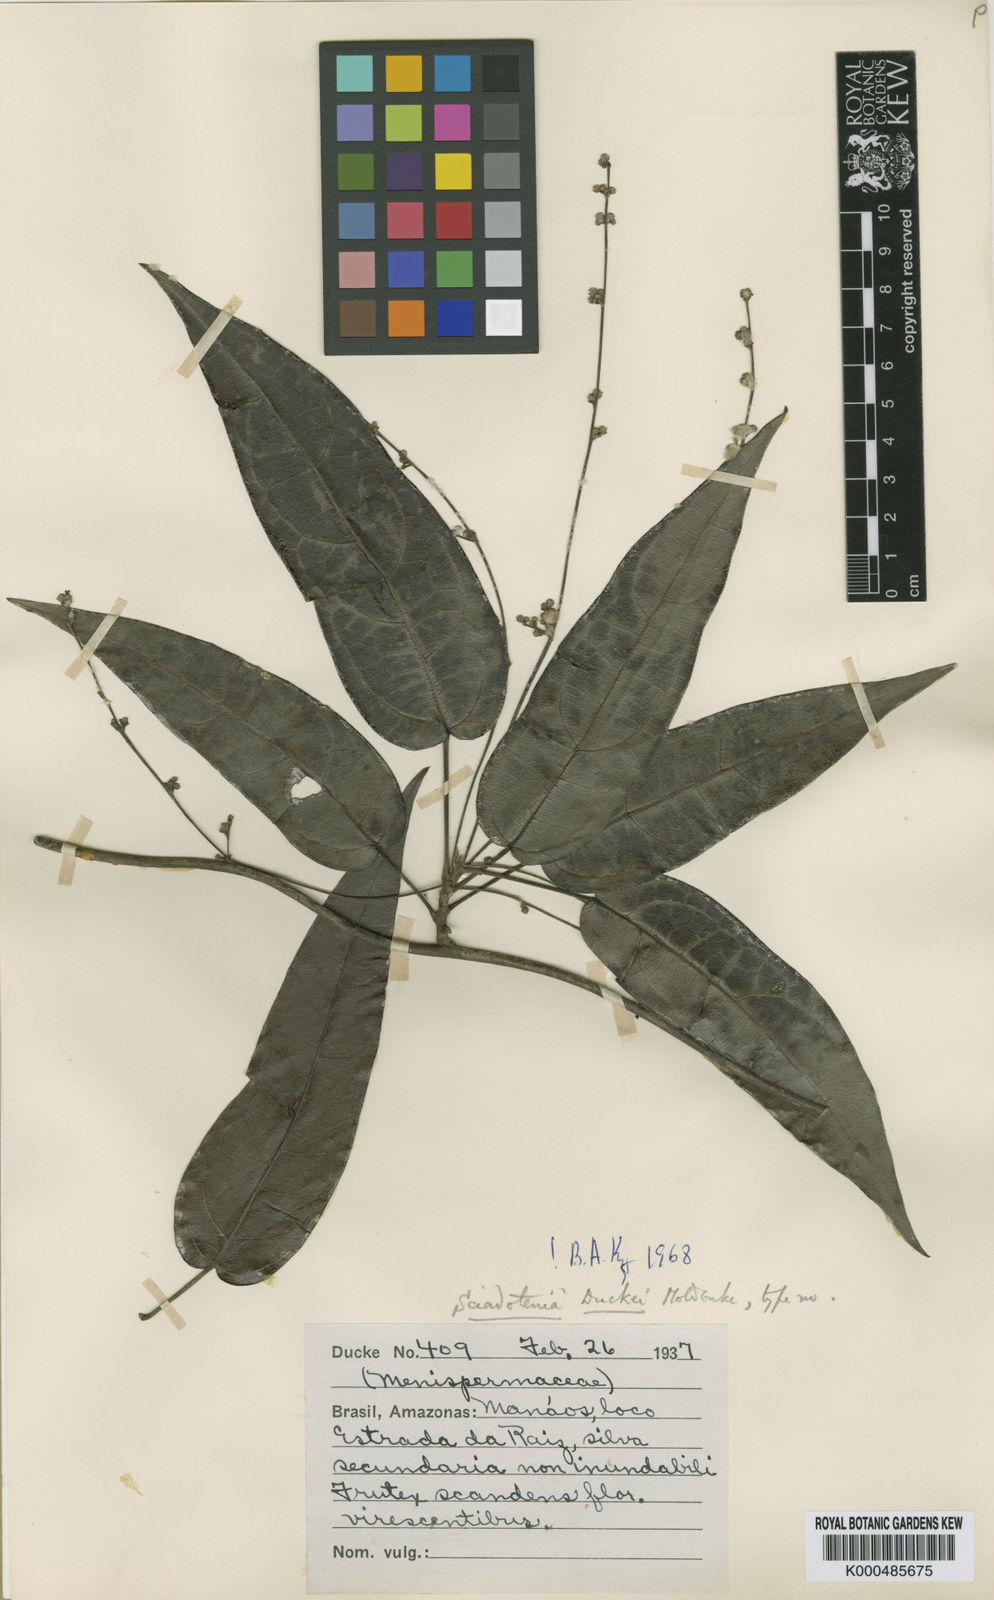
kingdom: Plantae
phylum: Tracheophyta
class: Magnoliopsida
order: Ranunculales
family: Menispermaceae
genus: Sciadotenia
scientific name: Sciadotenia duckei
